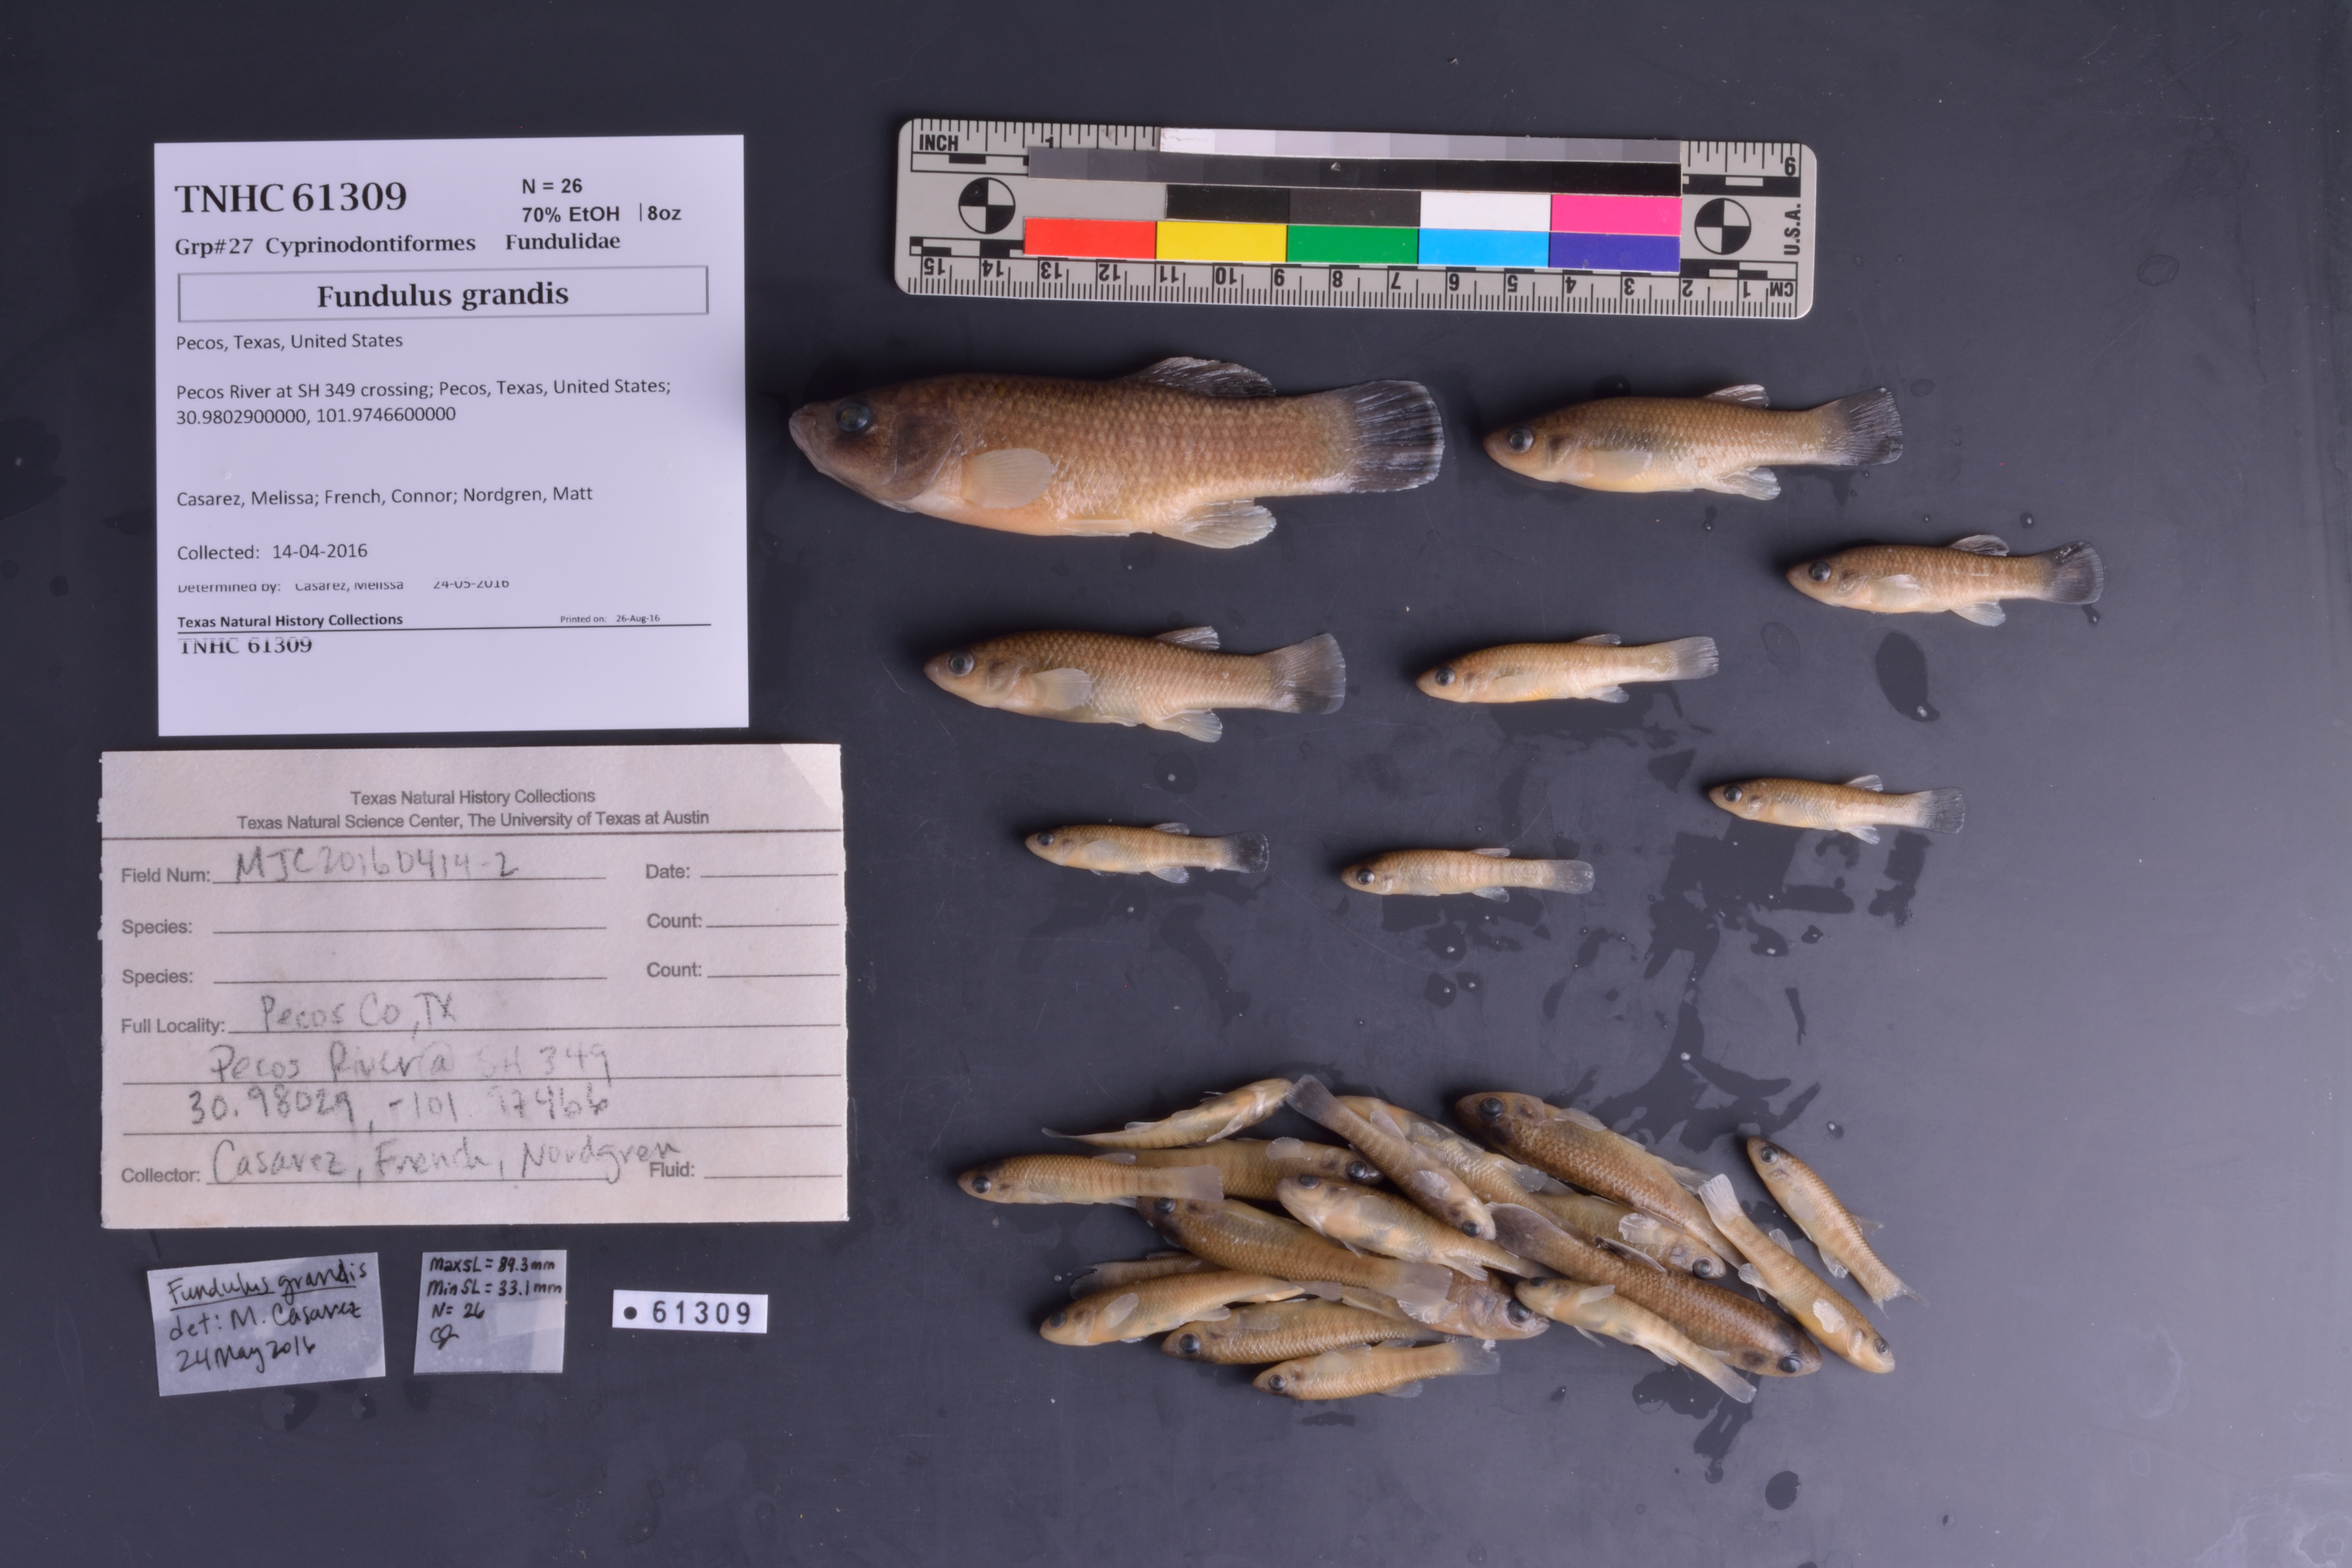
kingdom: Animalia
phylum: Chordata
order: Cyprinodontiformes
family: Fundulidae
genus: Fundulus
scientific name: Fundulus grandis
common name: Gulf killifish
